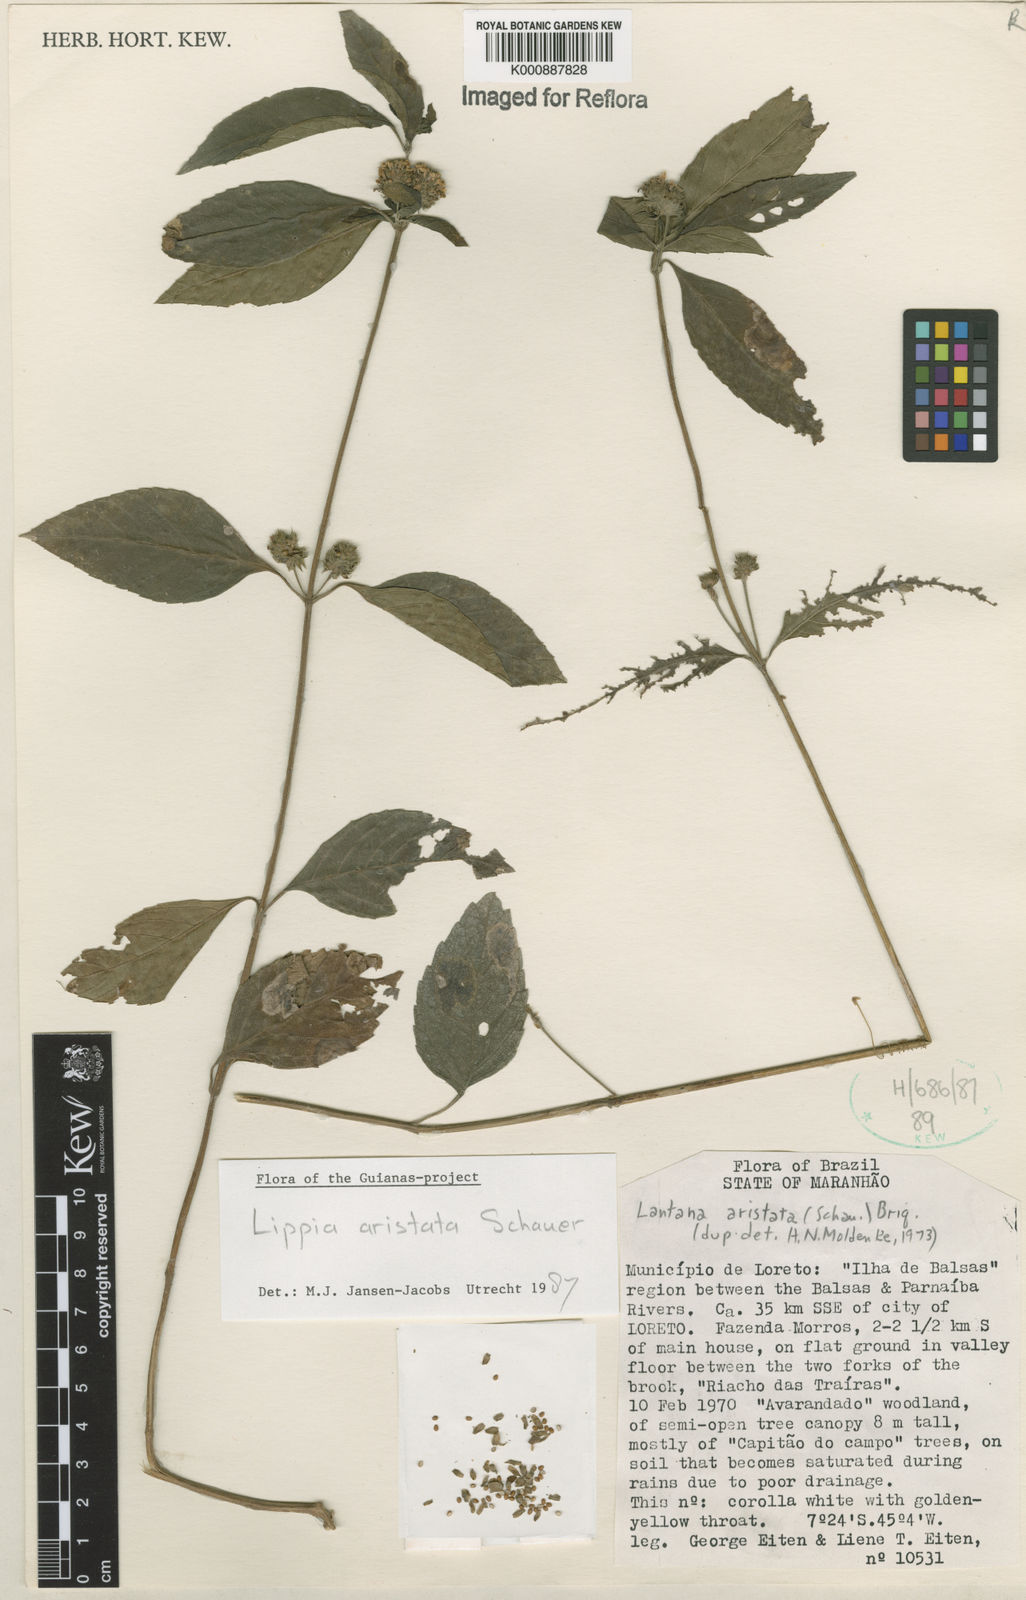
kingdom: Plantae
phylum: Tracheophyta
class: Magnoliopsida
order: Lamiales
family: Verbenaceae
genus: Lippia
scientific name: Lippia aristata
